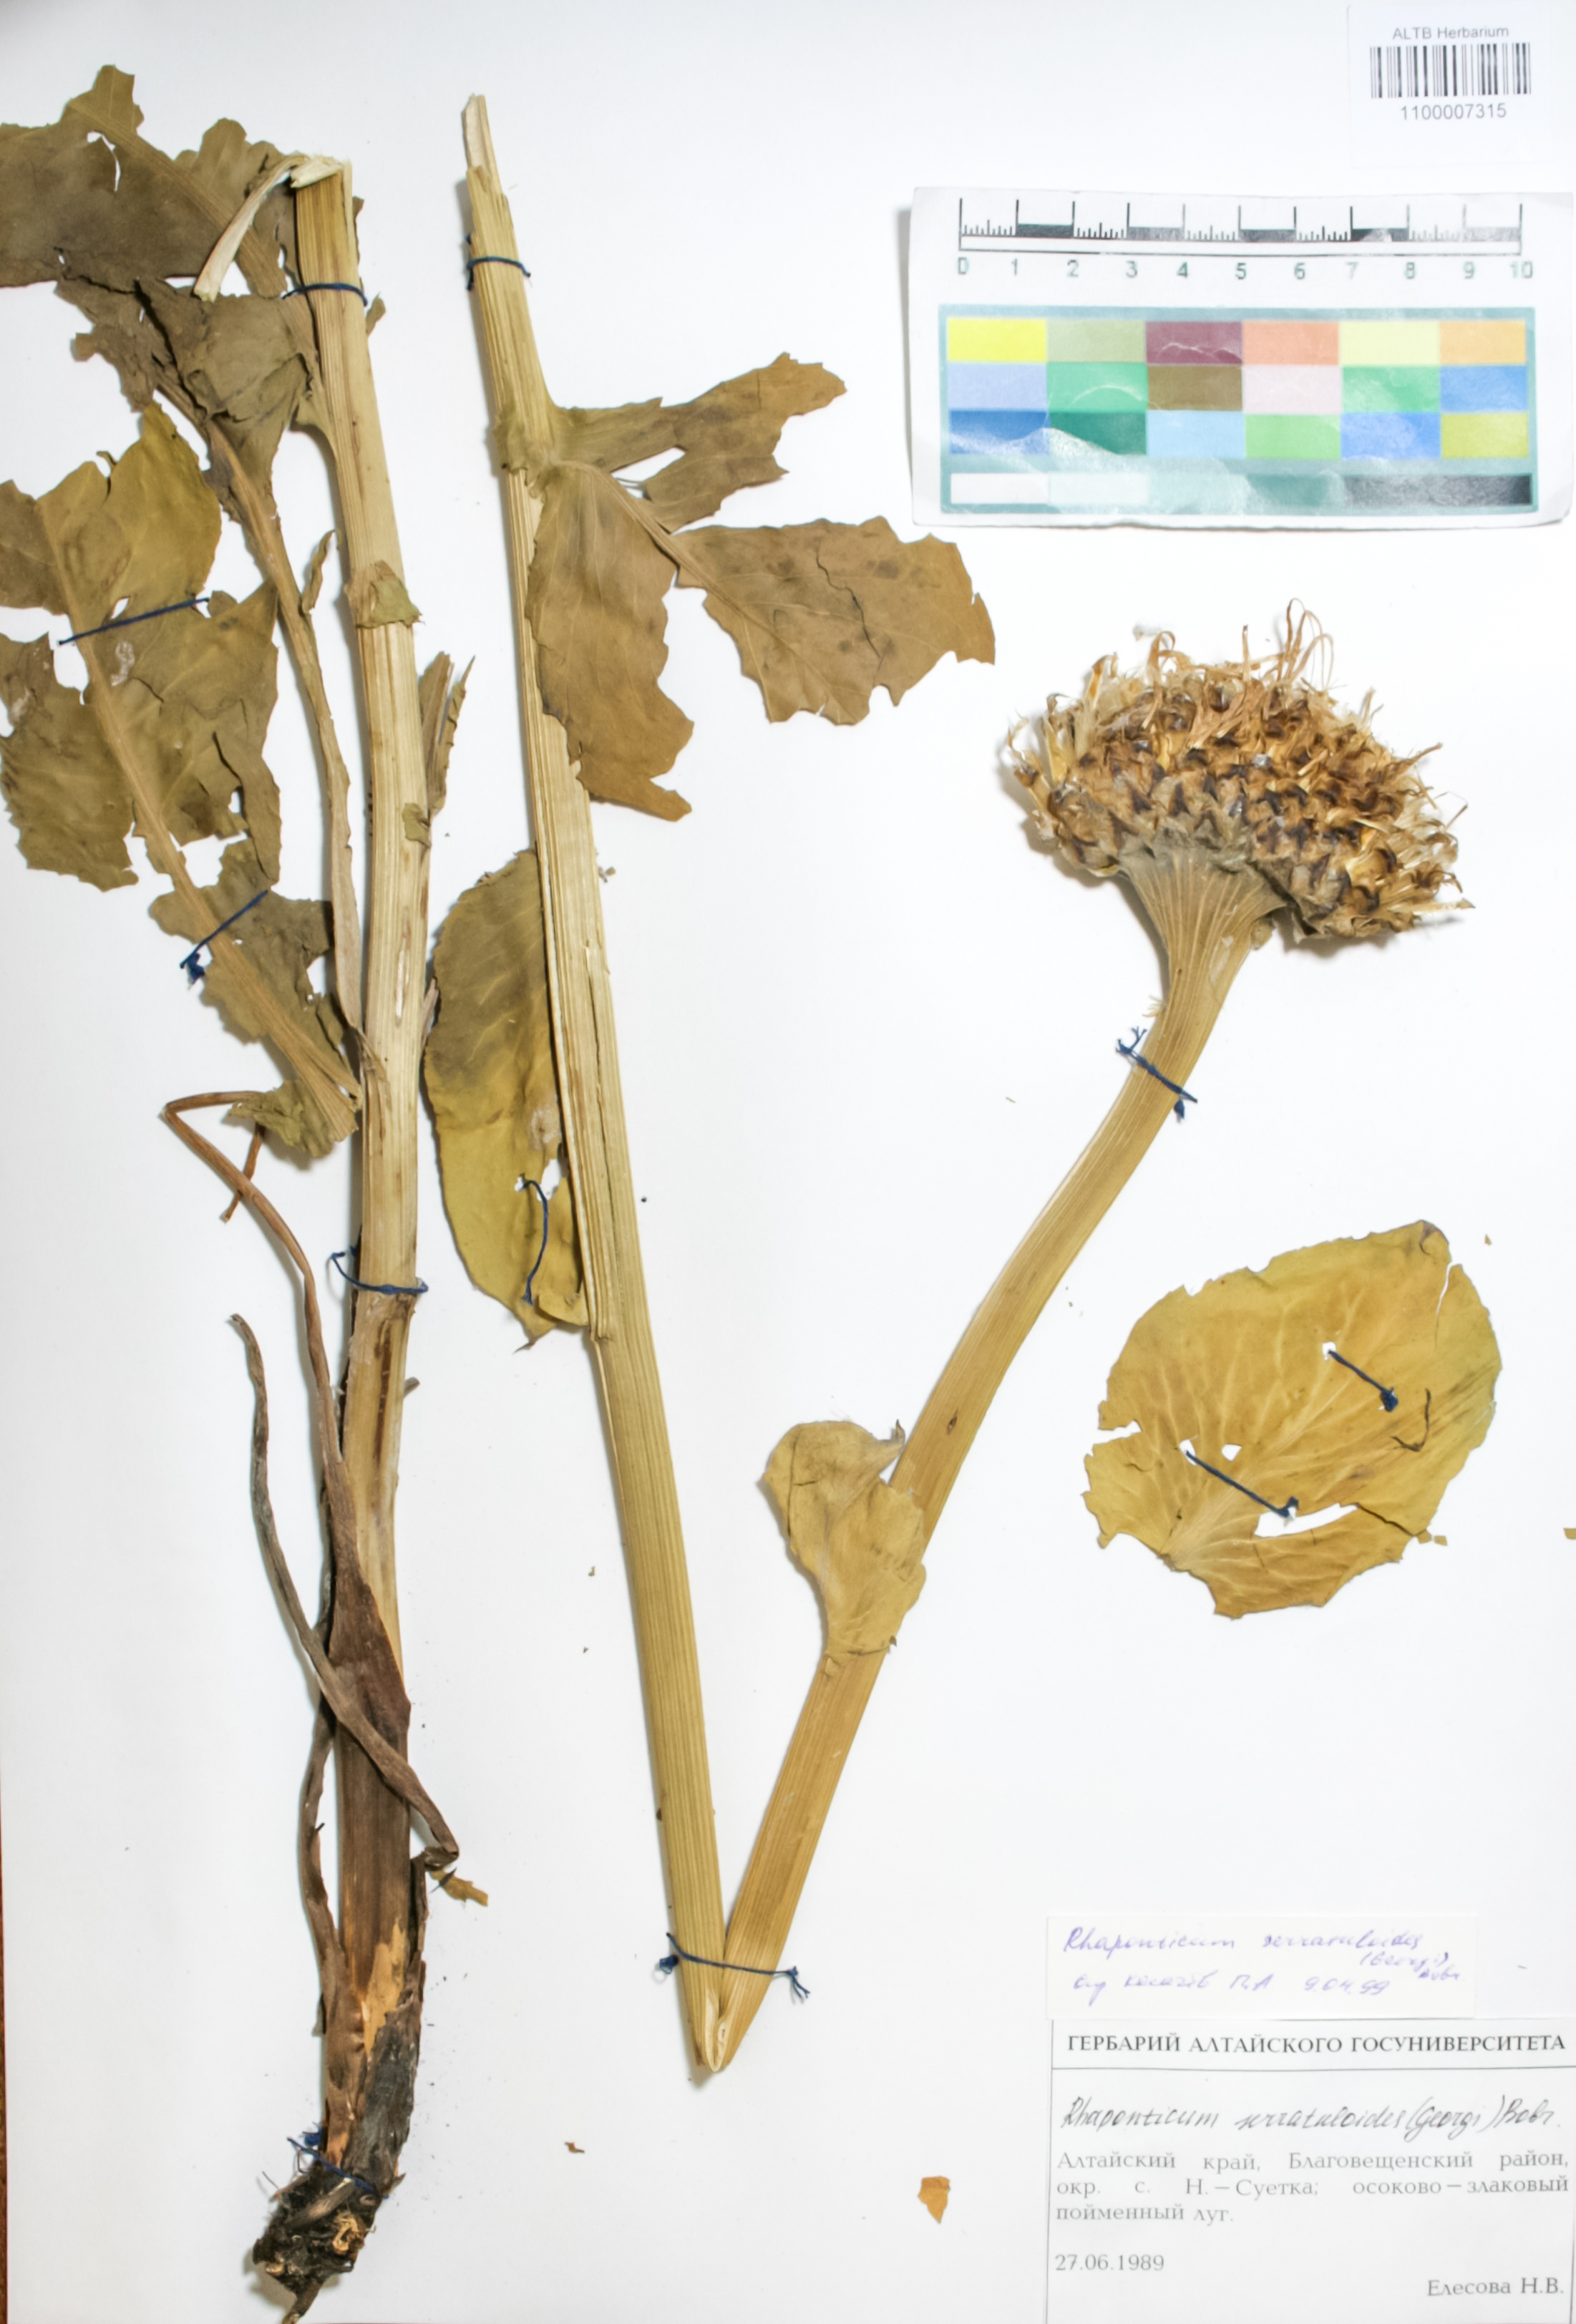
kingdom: Plantae
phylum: Tracheophyta
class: Magnoliopsida
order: Asterales
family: Asteraceae
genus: Leuzea
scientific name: Leuzea altaica
